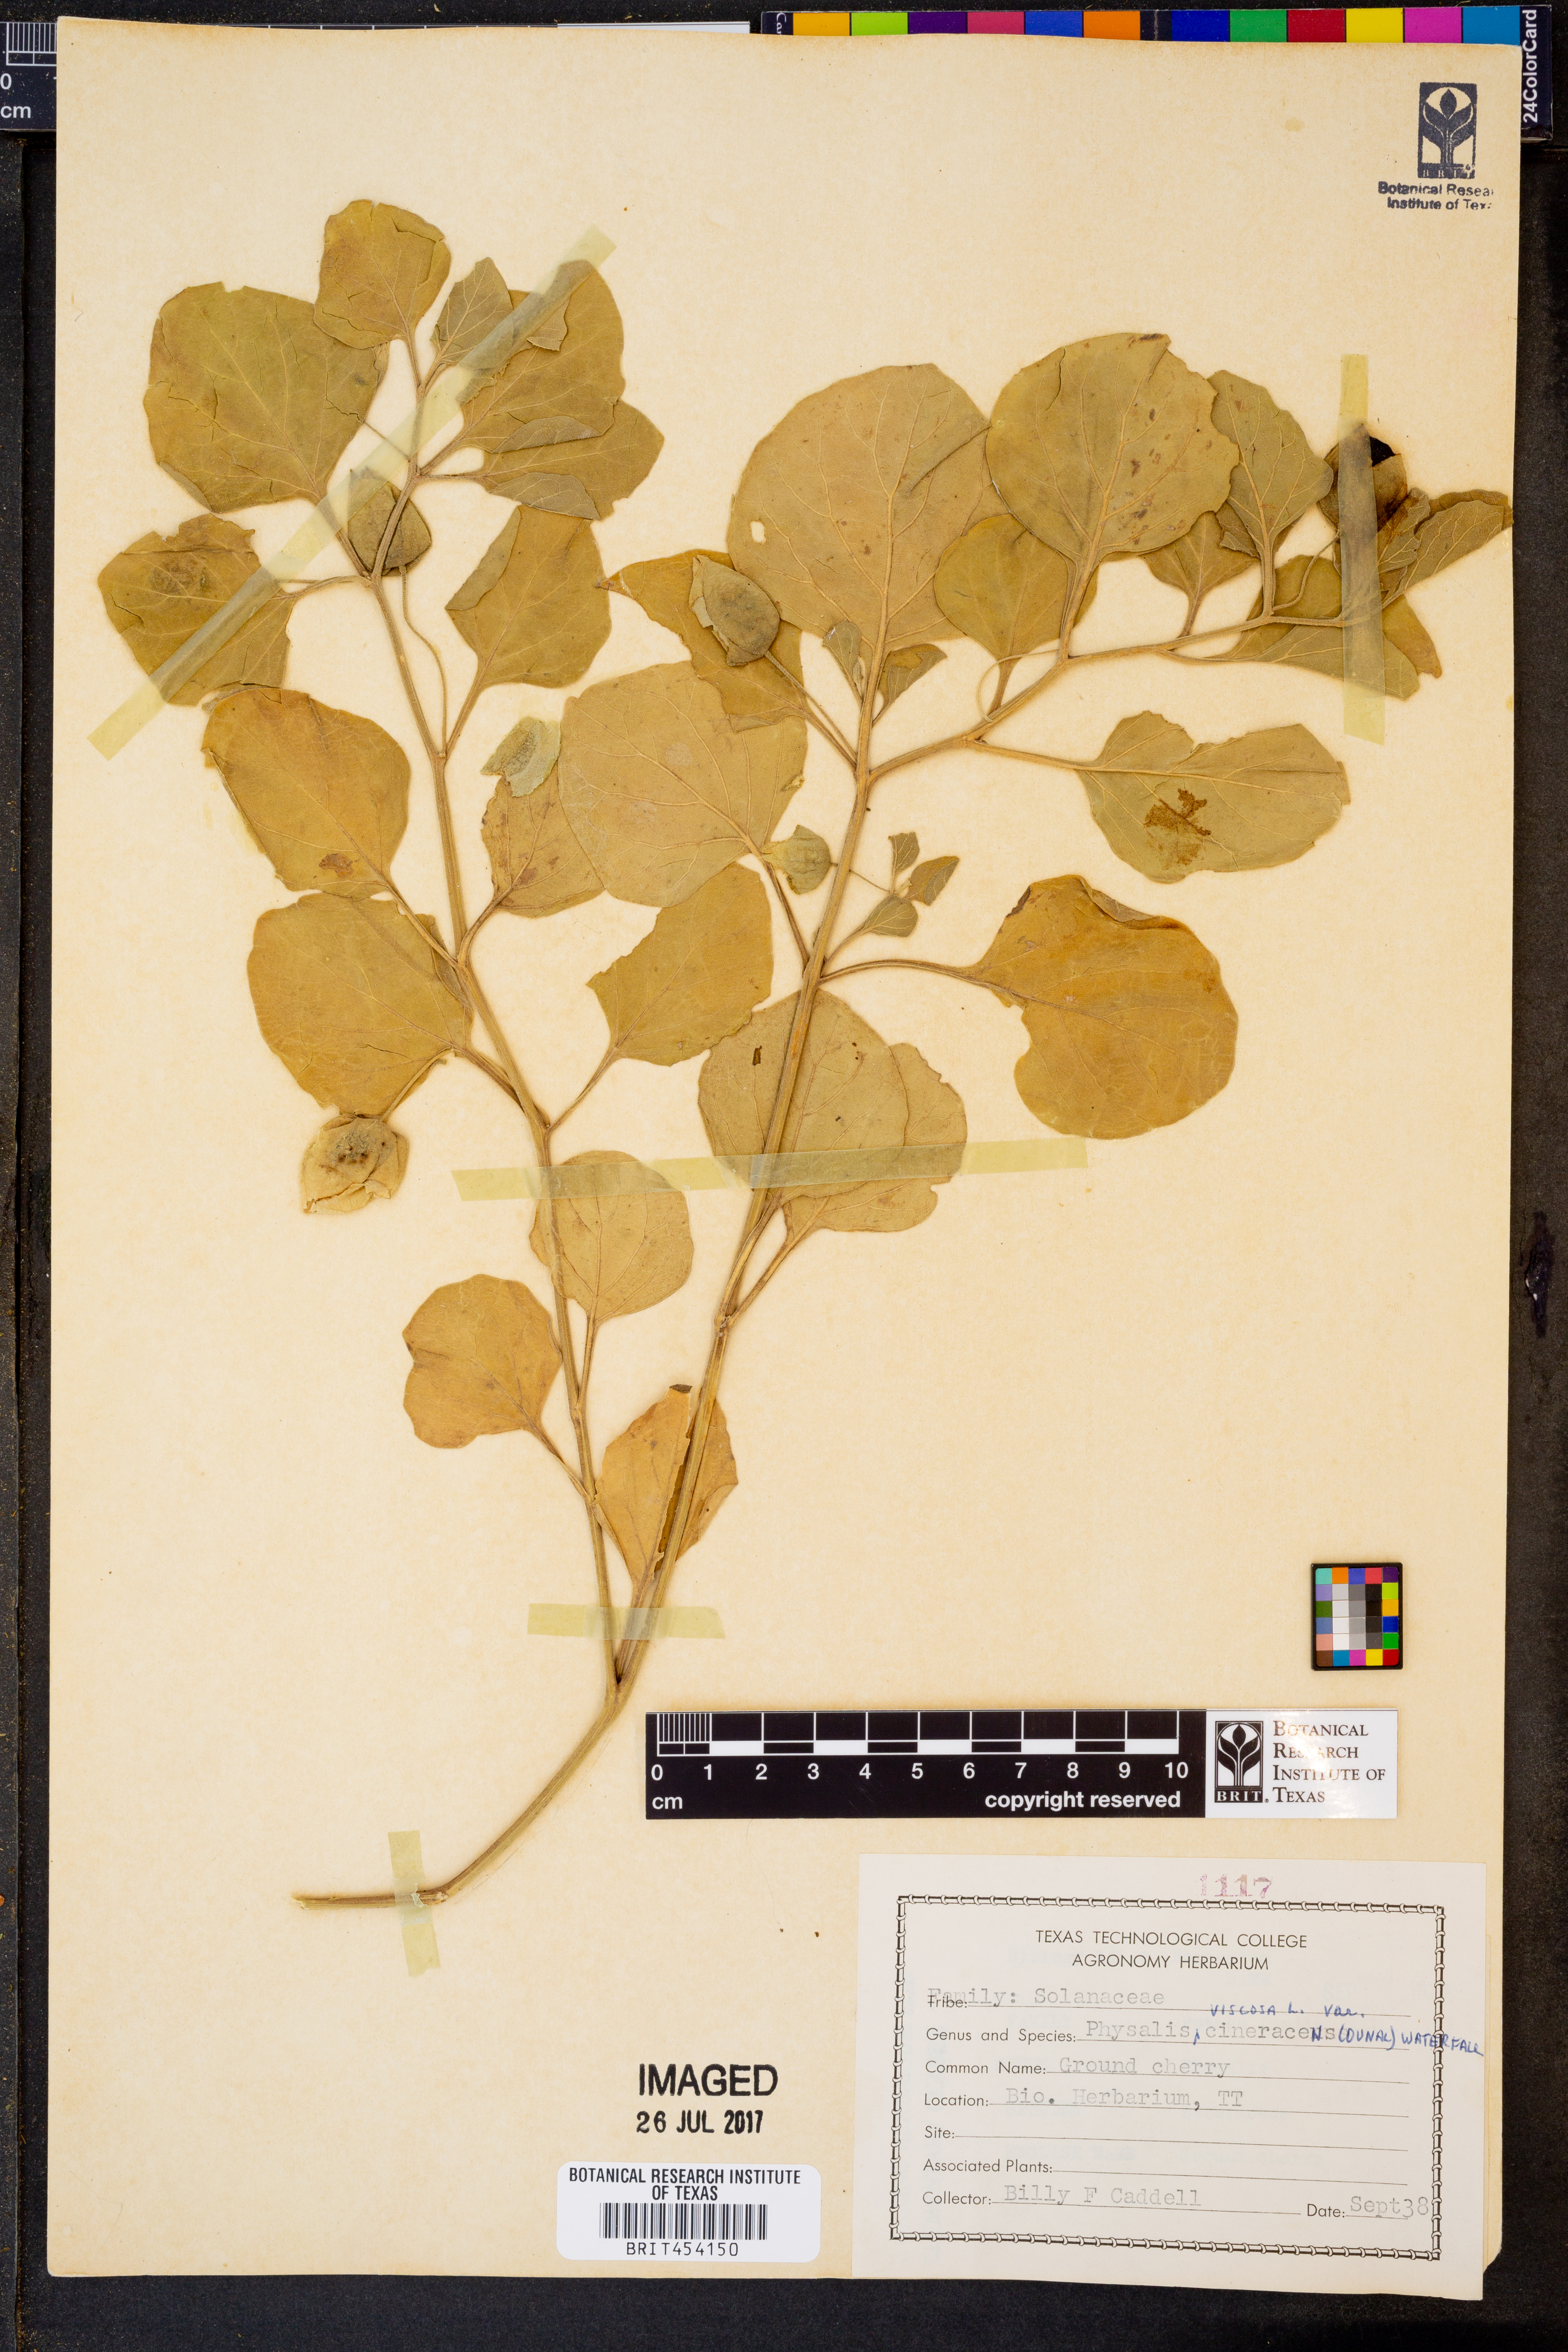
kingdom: Plantae
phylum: Tracheophyta
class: Magnoliopsida
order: Solanales
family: Solanaceae
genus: Physalis
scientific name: Physalis cinerascens
